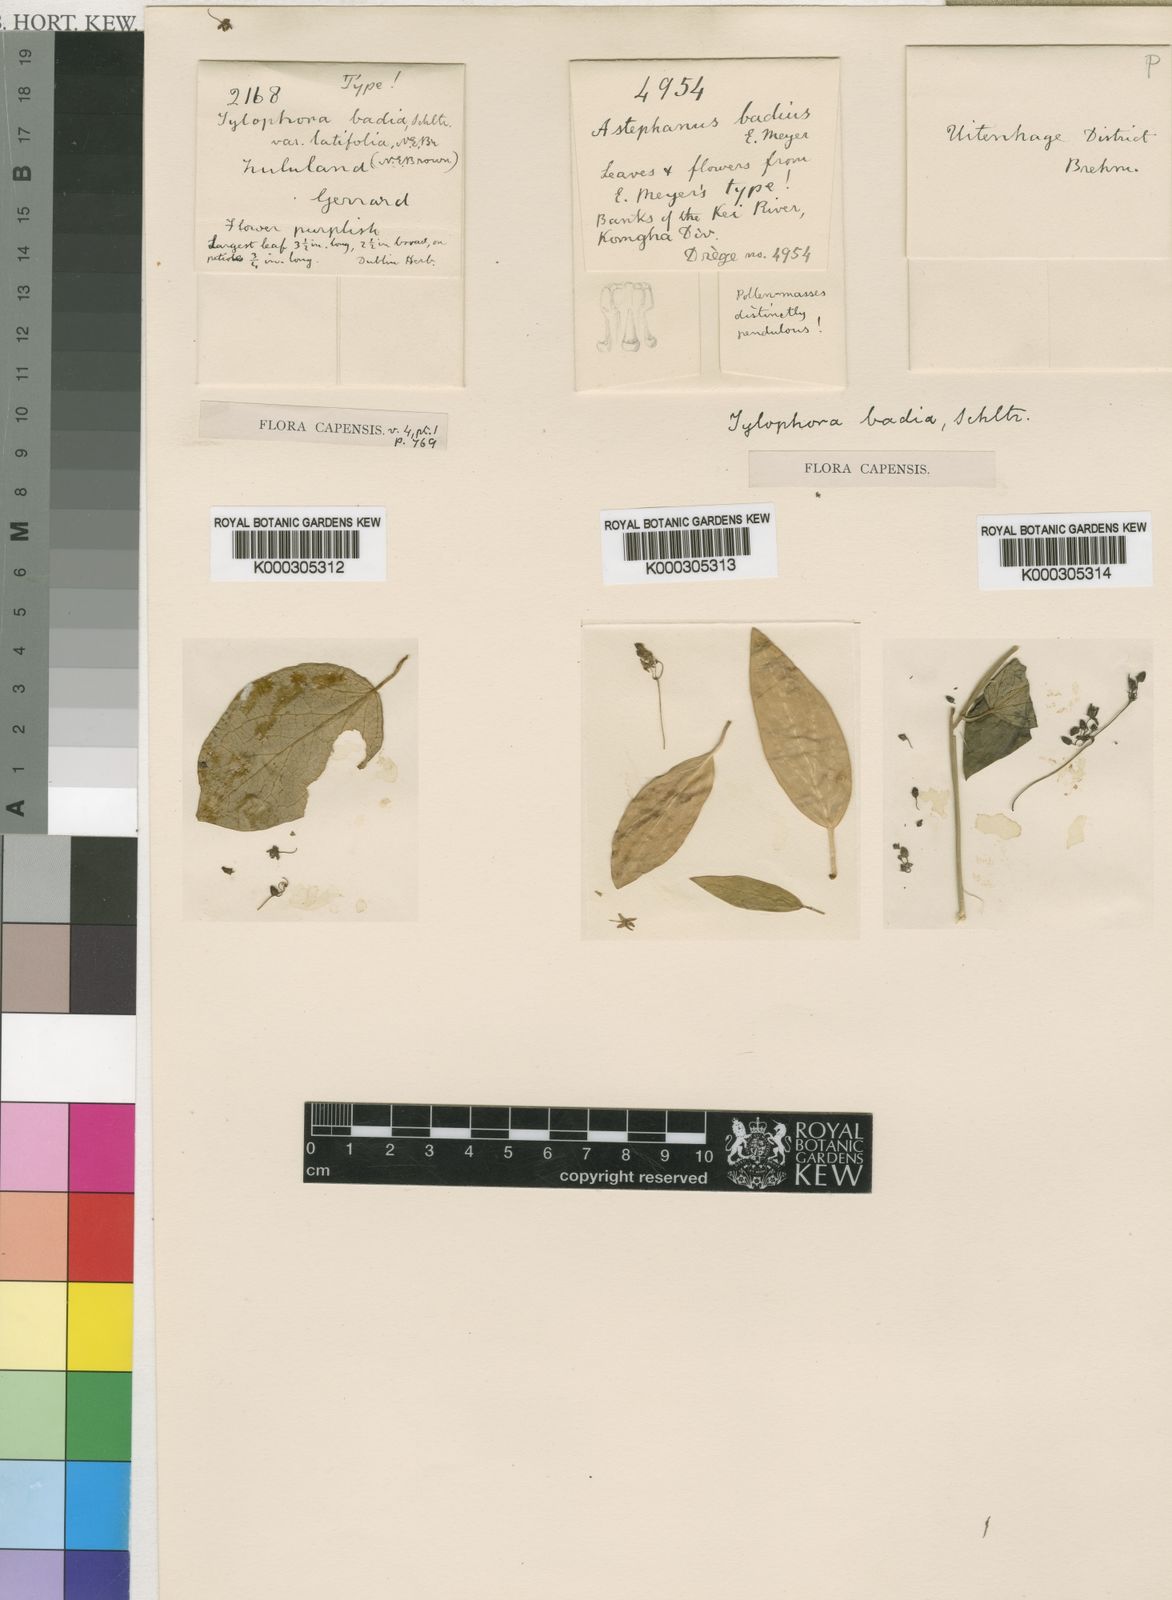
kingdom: Plantae
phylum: Tracheophyta
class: Magnoliopsida
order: Gentianales
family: Apocynaceae
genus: Vincetoxicum
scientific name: Vincetoxicum badium
